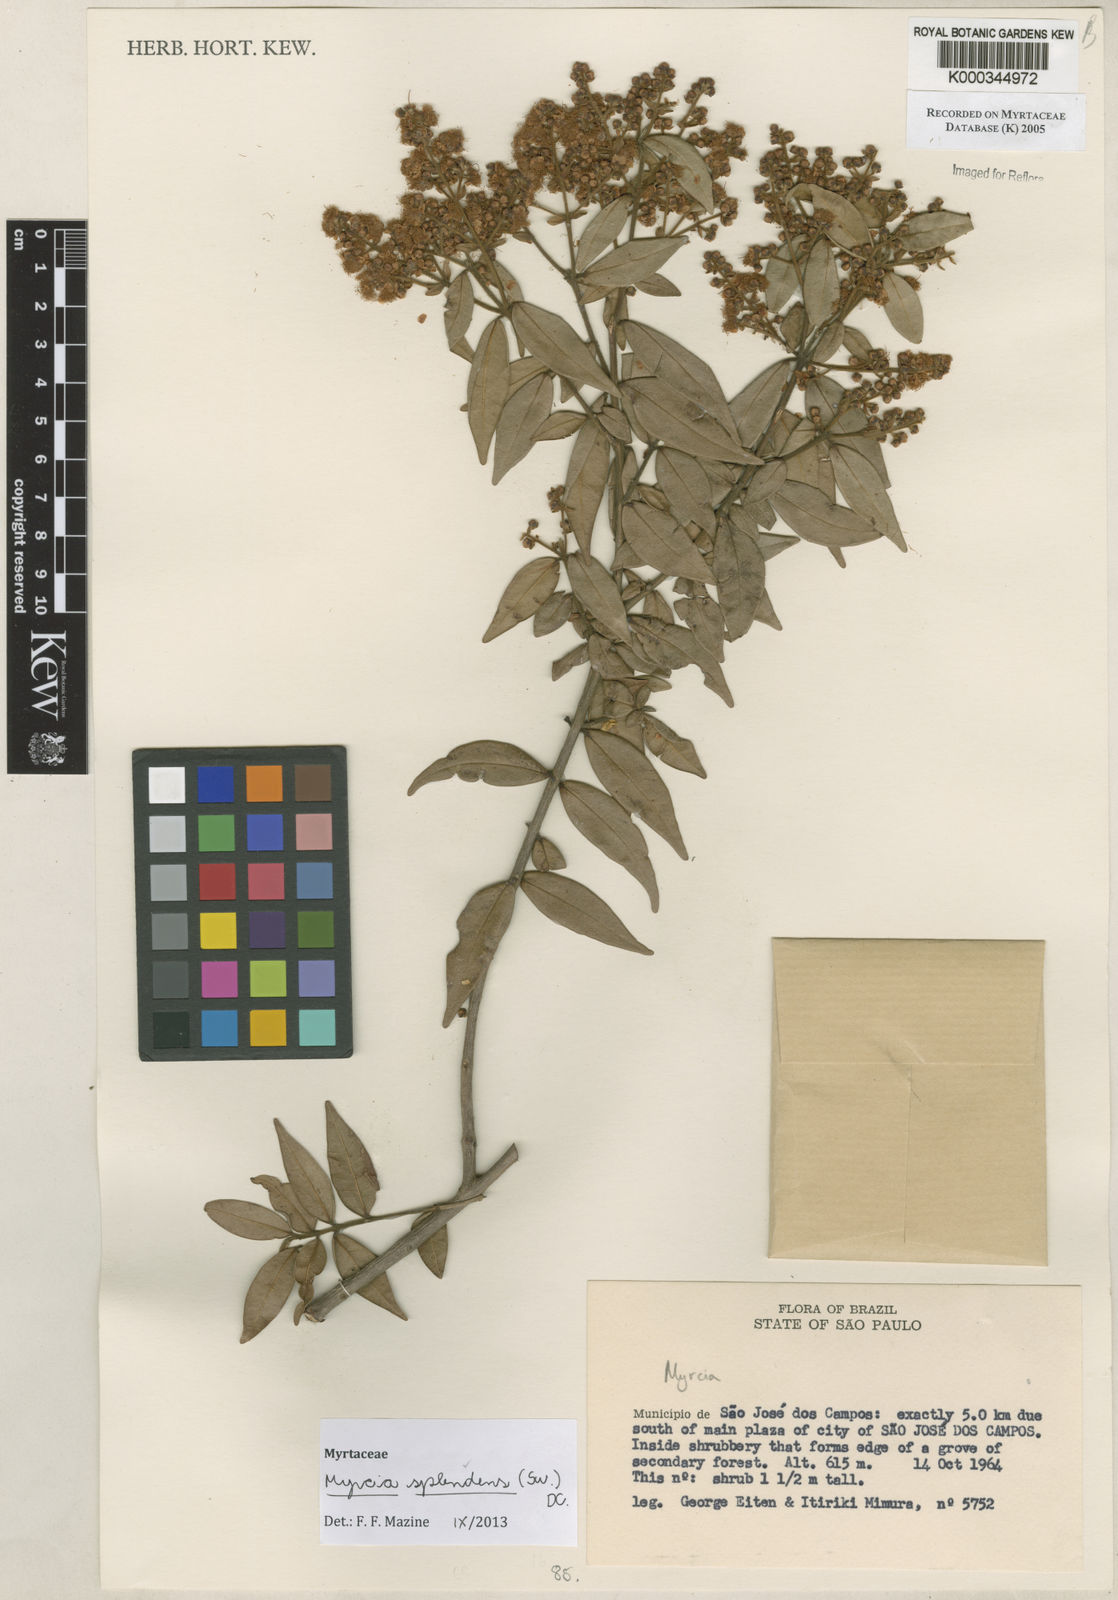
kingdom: Plantae
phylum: Tracheophyta
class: Magnoliopsida
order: Myrtales
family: Myrtaceae
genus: Myrcia
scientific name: Myrcia
